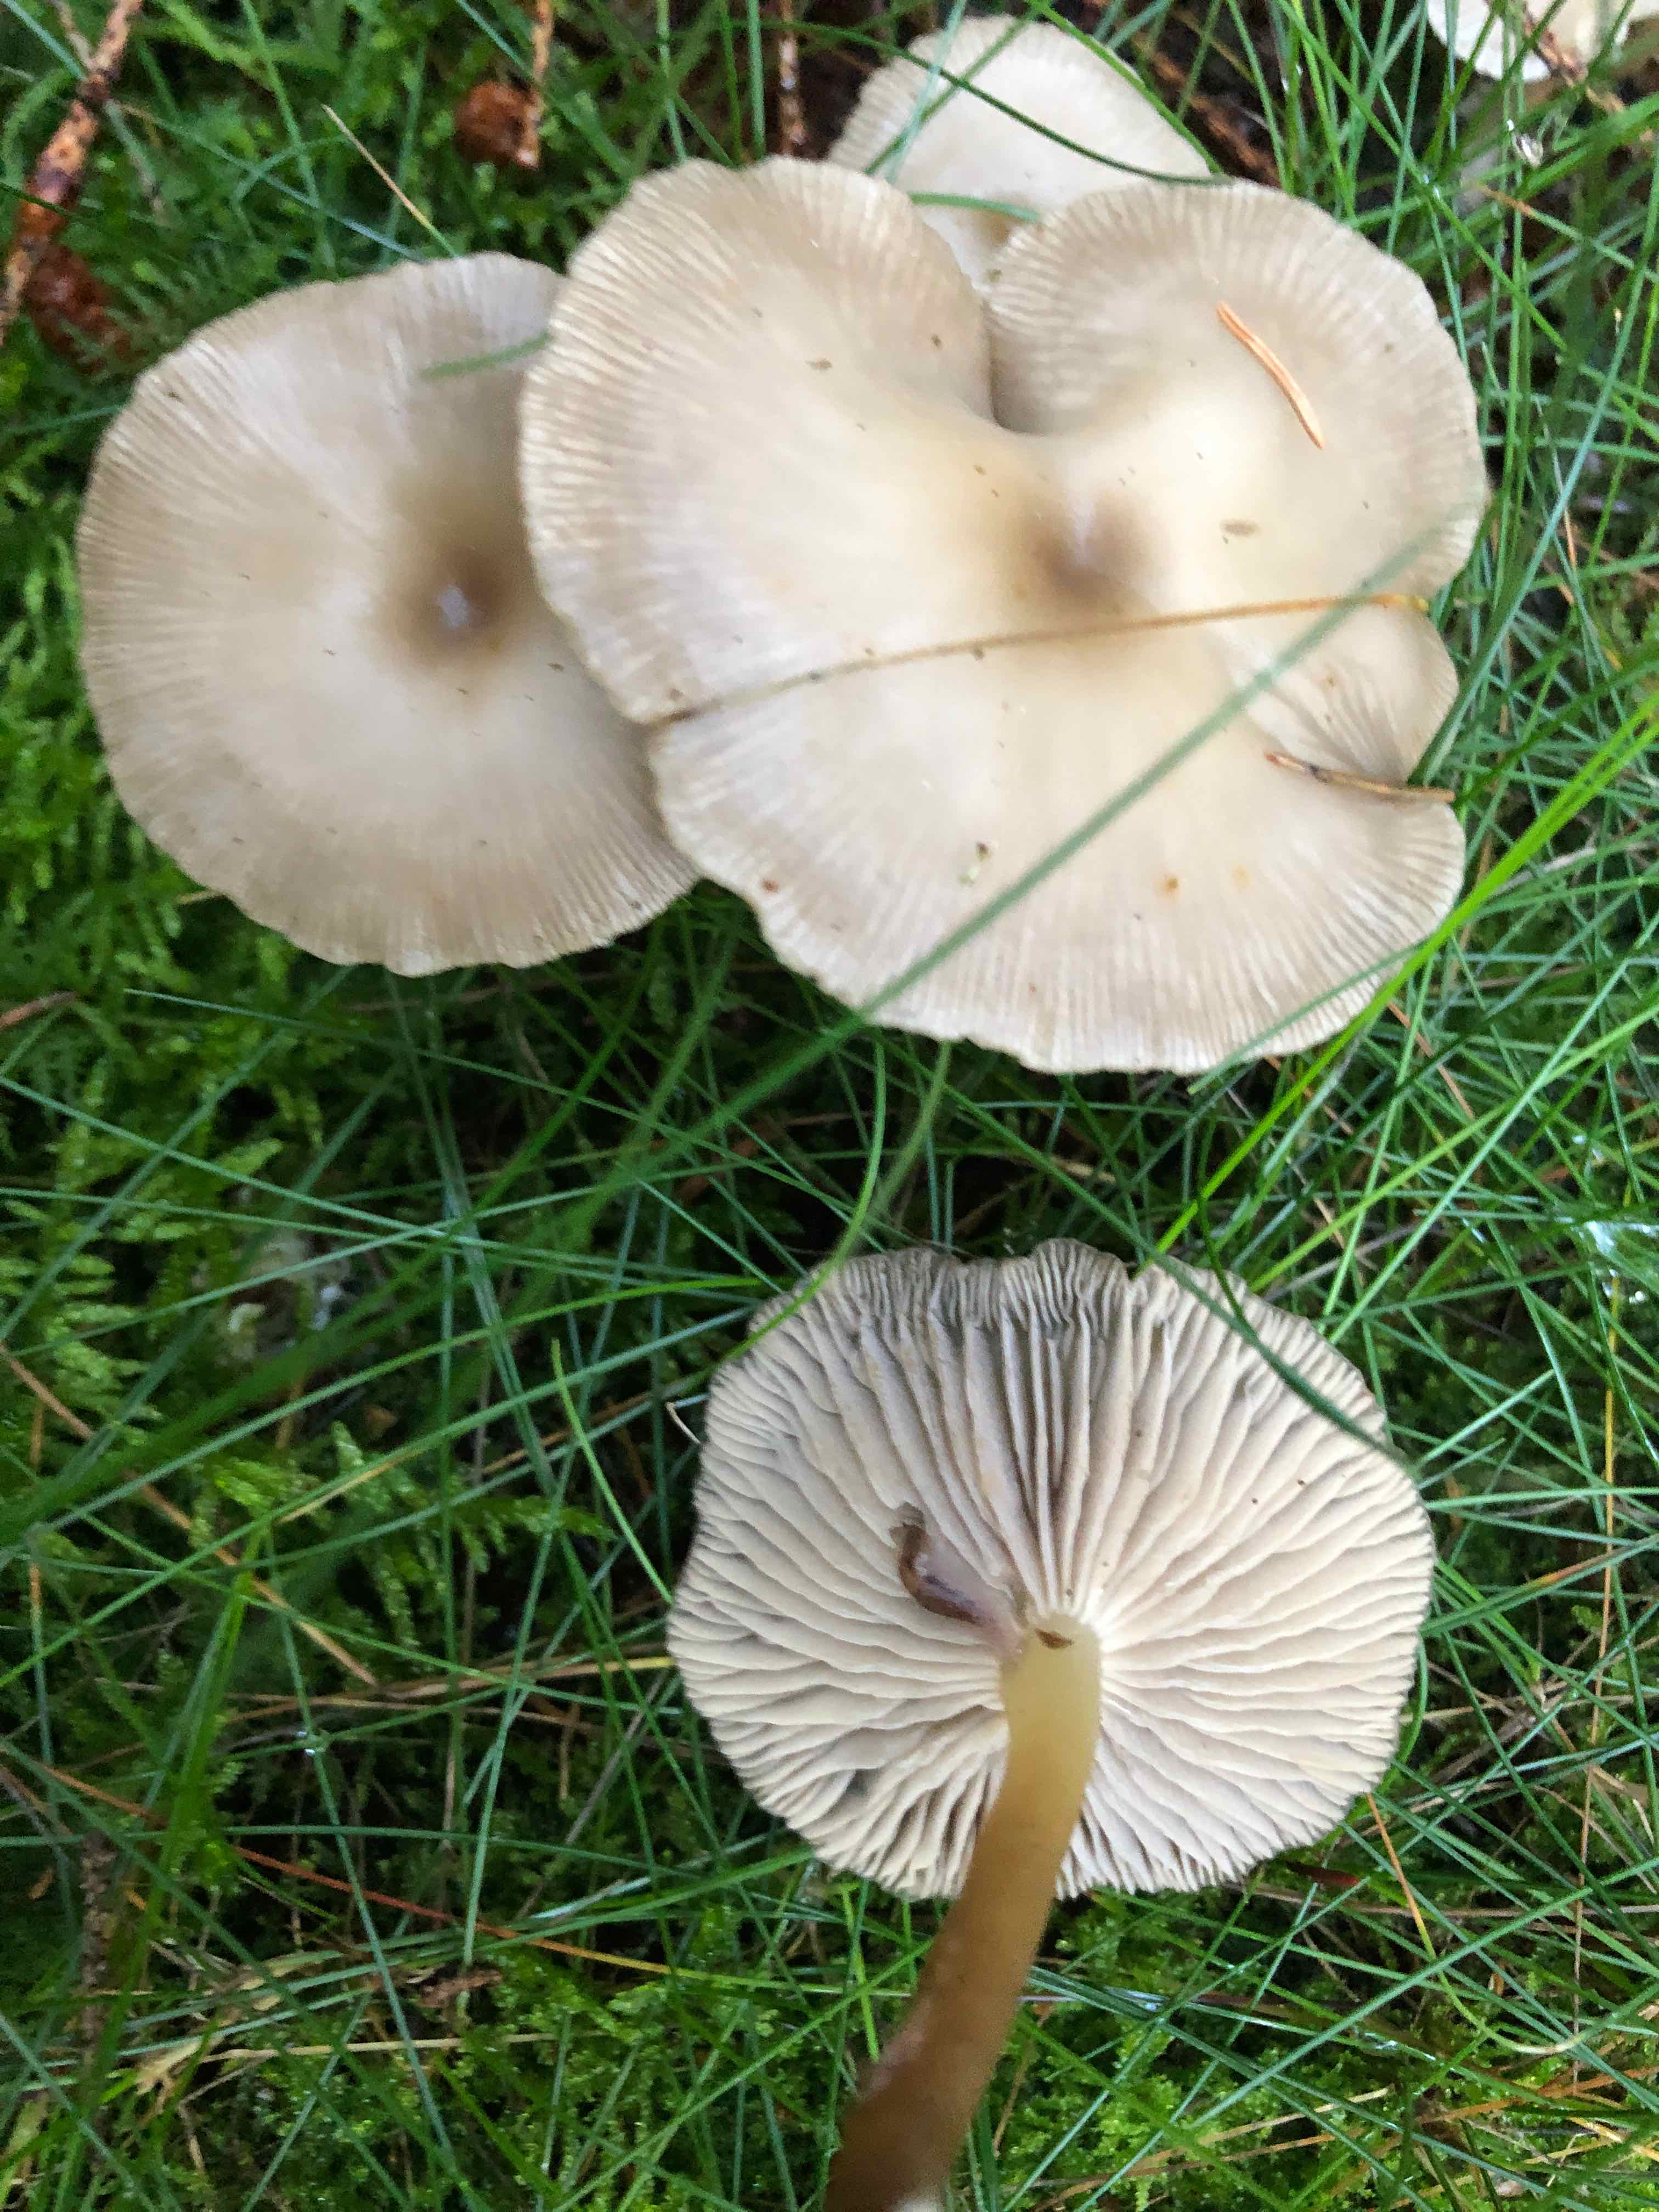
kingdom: Fungi
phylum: Basidiomycota
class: Agaricomycetes
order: Agaricales
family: Tricholomataceae
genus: Clitocybe
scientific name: Clitocybe
